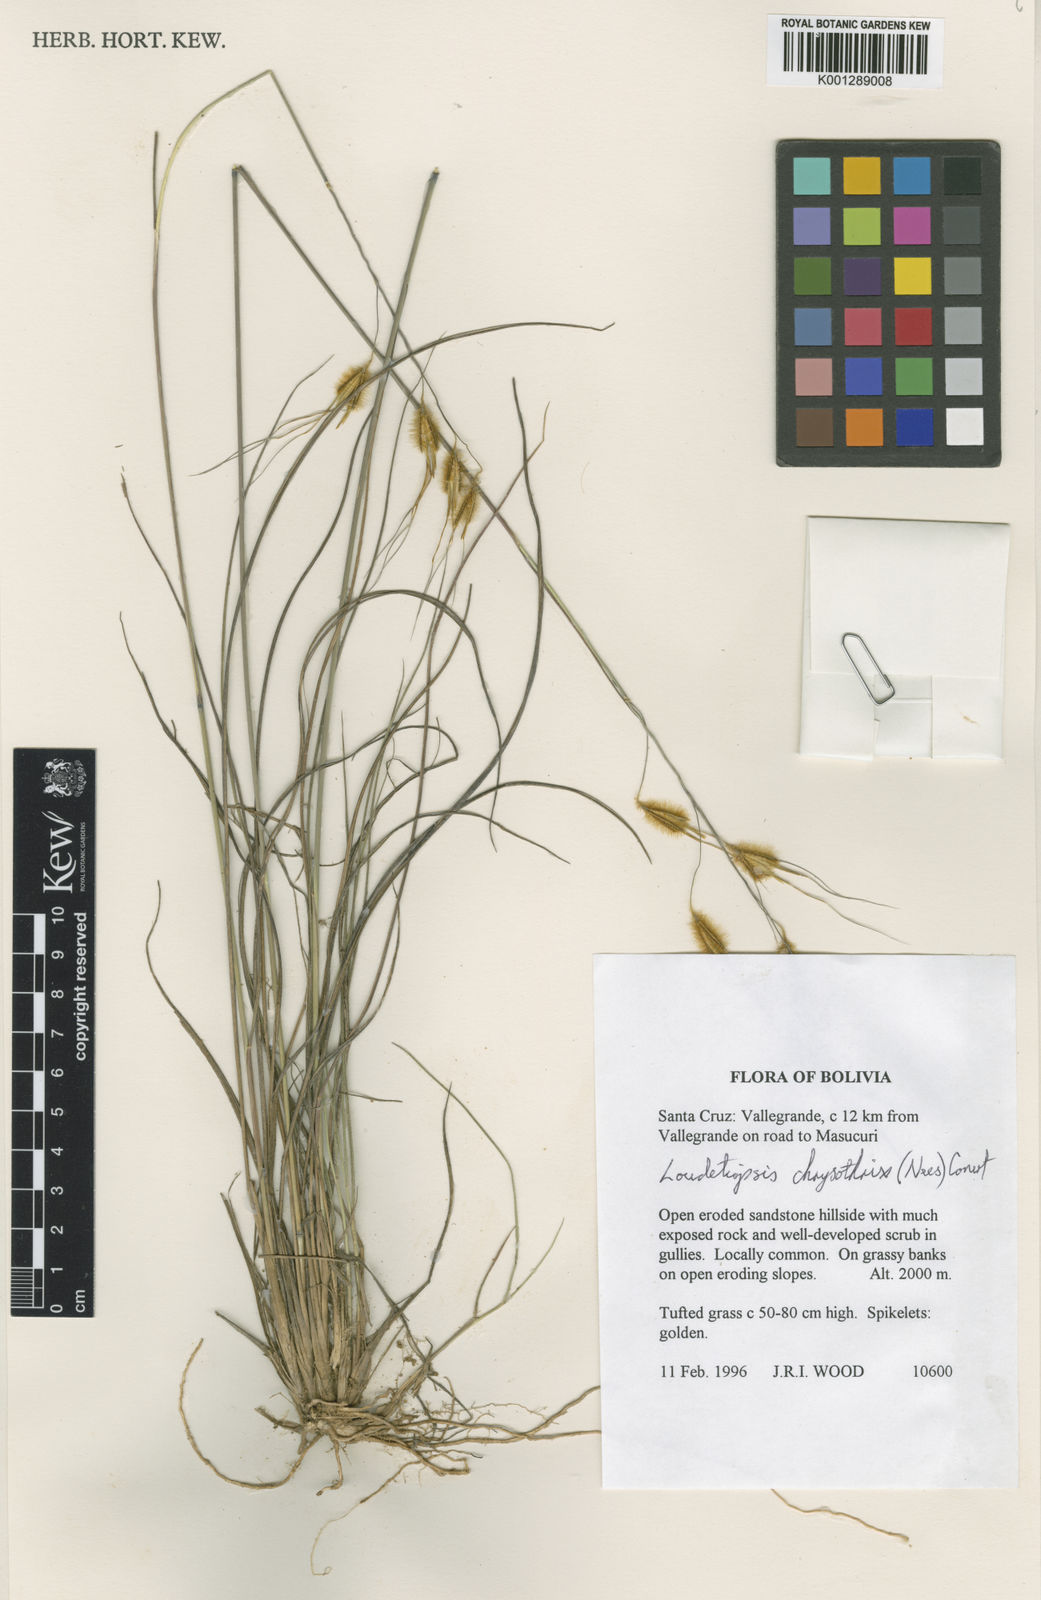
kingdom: Plantae
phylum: Tracheophyta
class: Liliopsida
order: Poales
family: Poaceae
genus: Loudetiopsis
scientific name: Loudetiopsis chrysothrix
